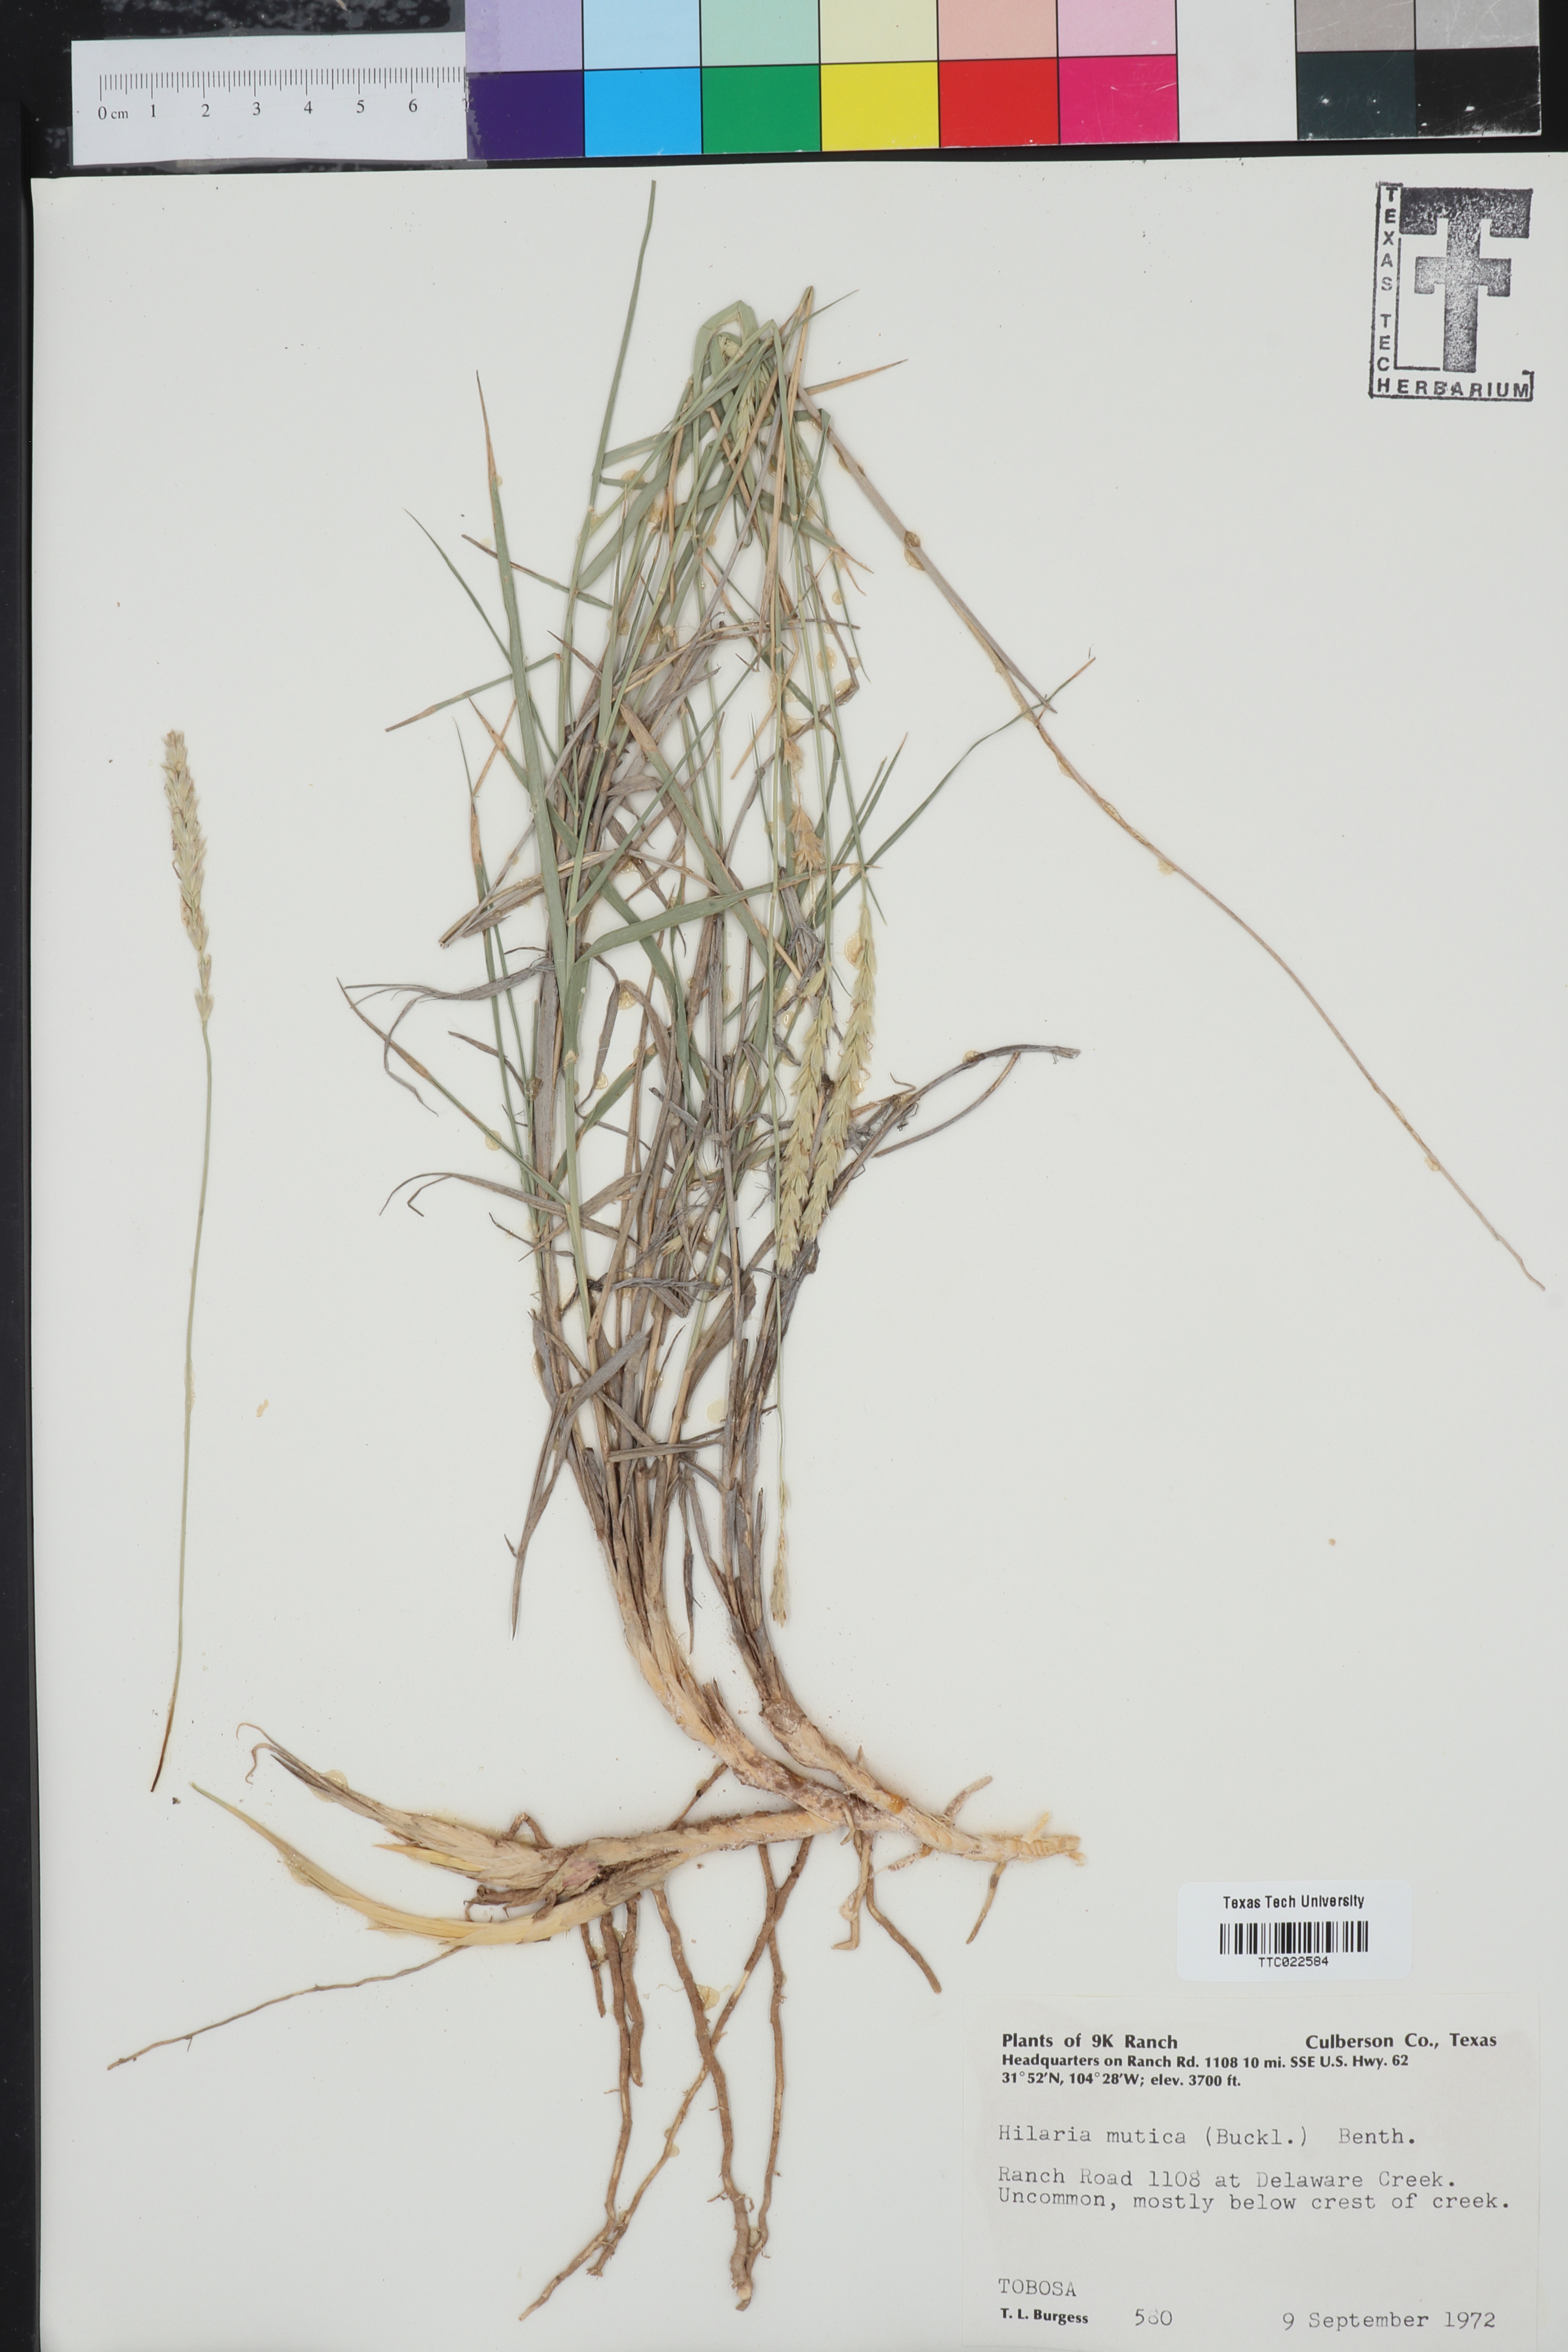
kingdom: Plantae
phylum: Tracheophyta
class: Liliopsida
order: Poales
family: Poaceae
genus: Hilaria
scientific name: Hilaria mutica
